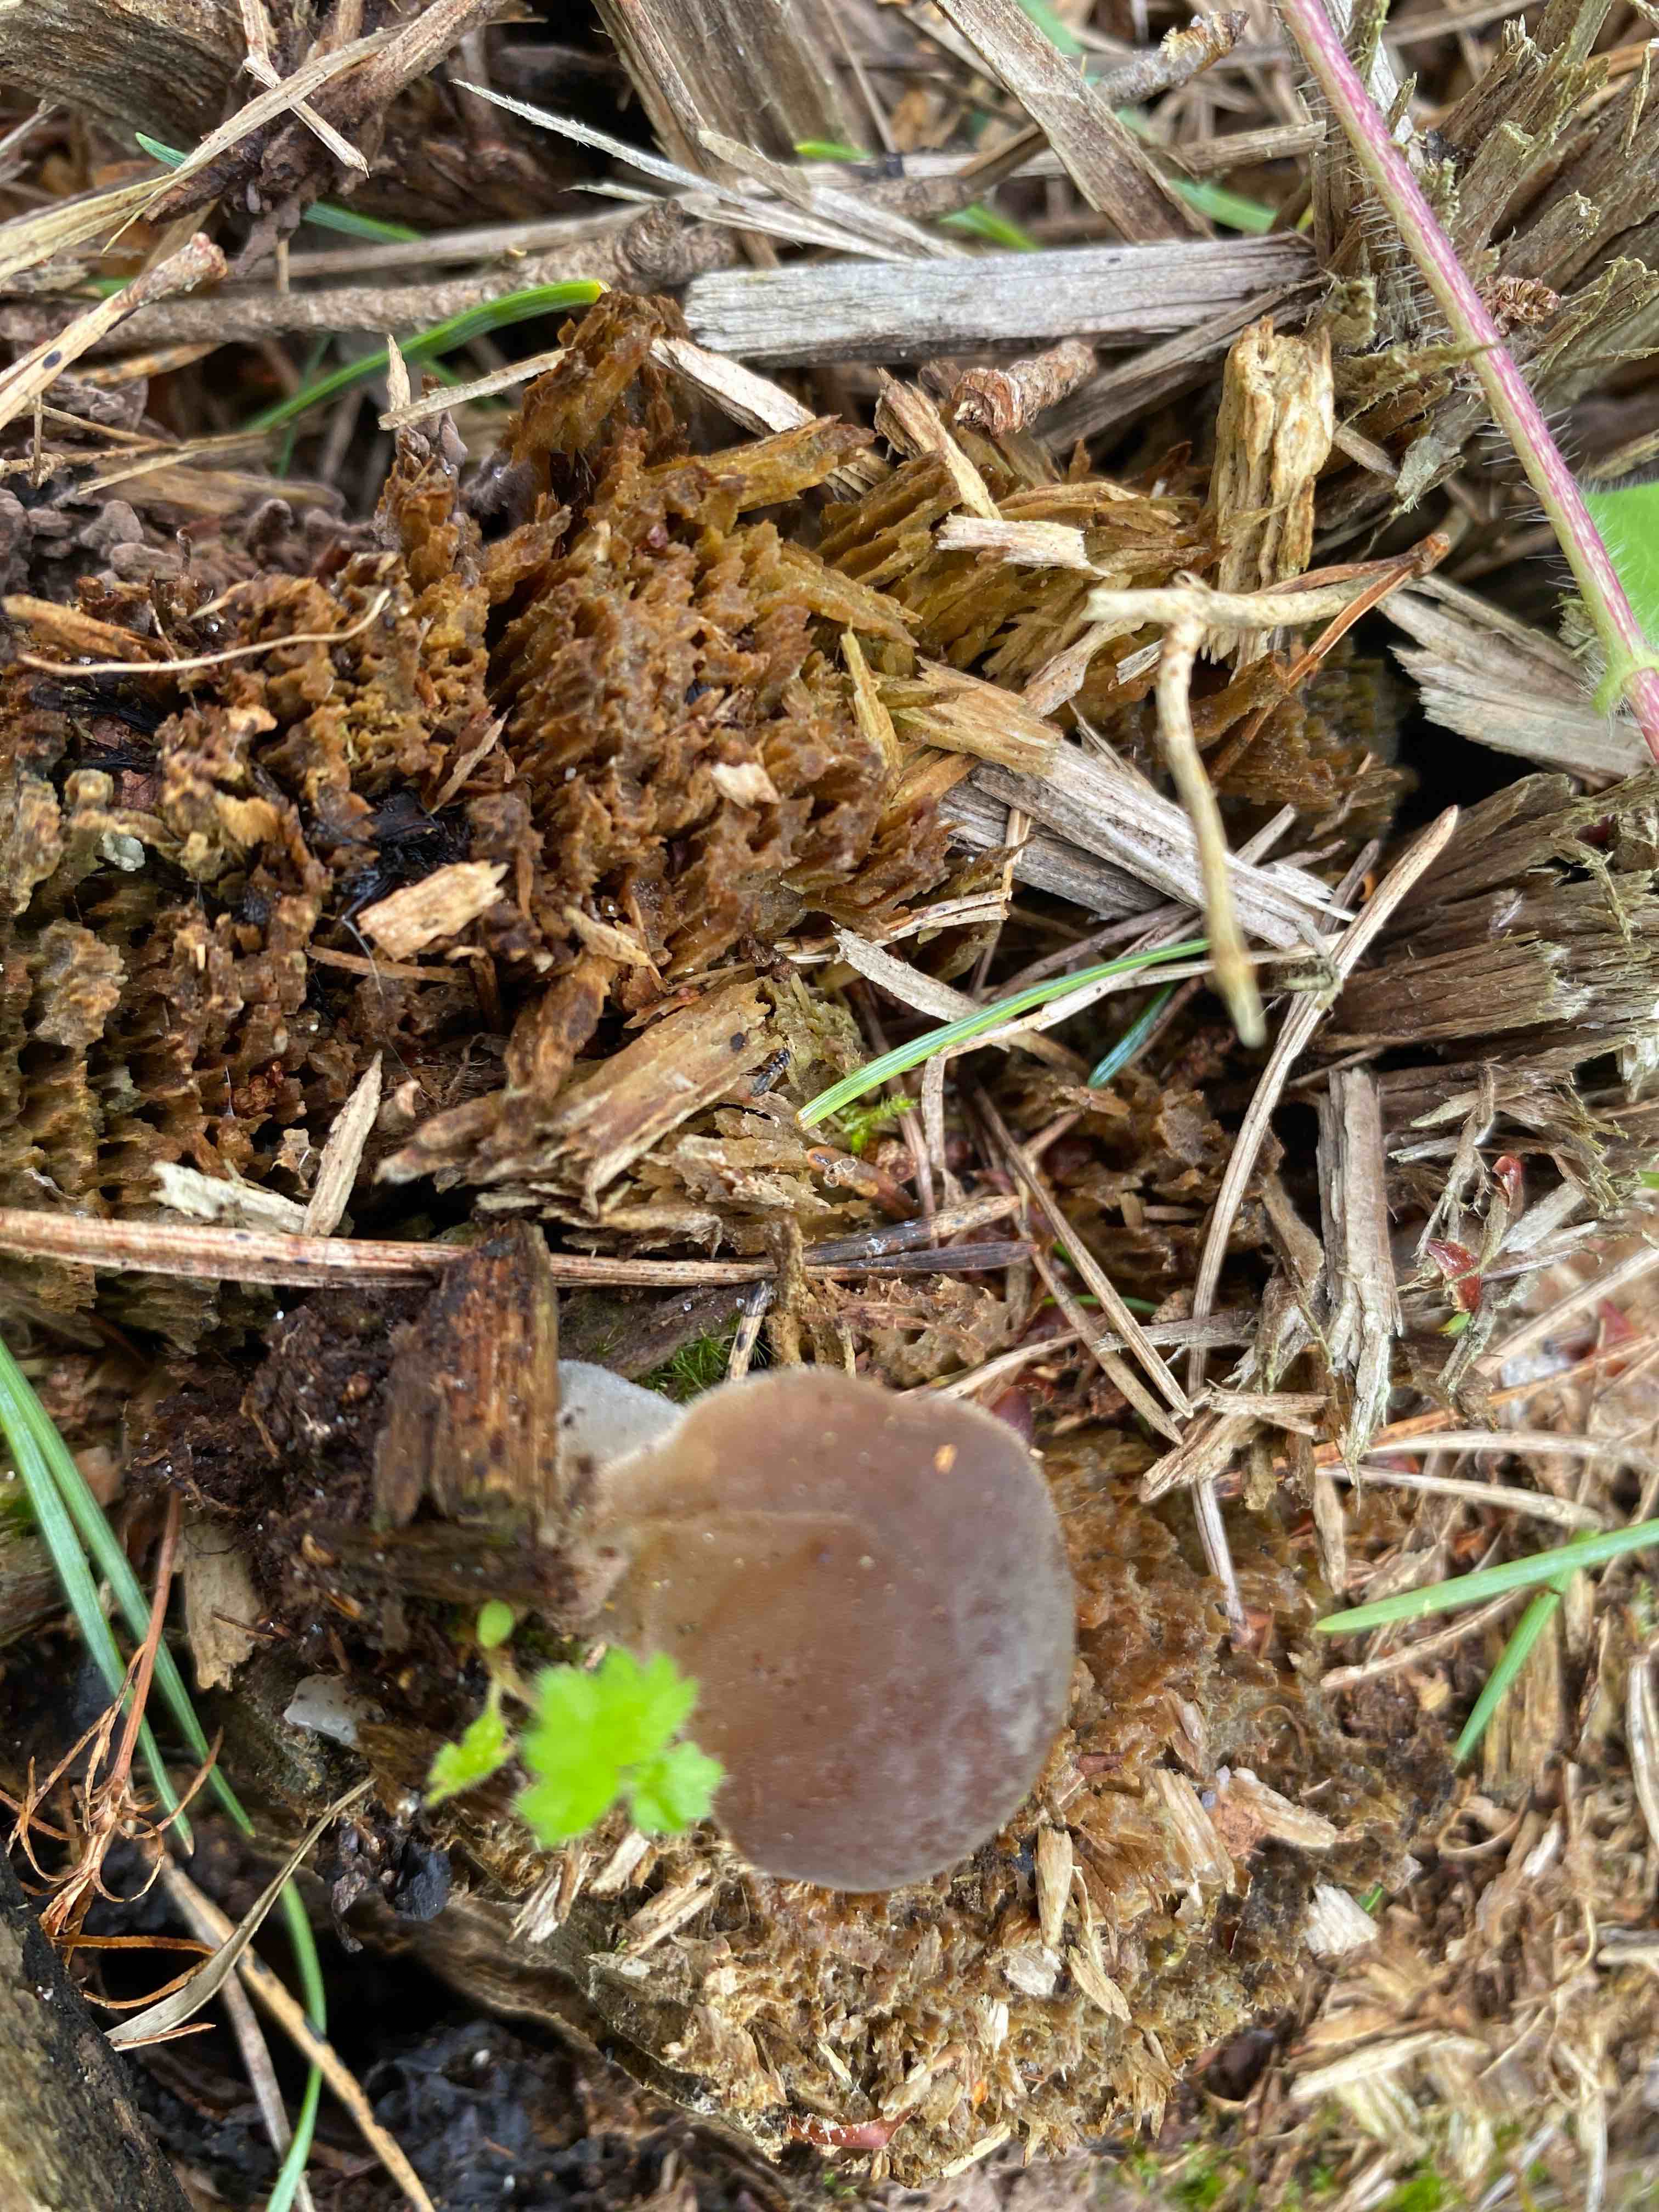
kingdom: Fungi
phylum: Basidiomycota
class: Agaricomycetes
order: Auriculariales
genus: Pseudohydnum
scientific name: Pseudohydnum gelatinosum
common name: bævretand
